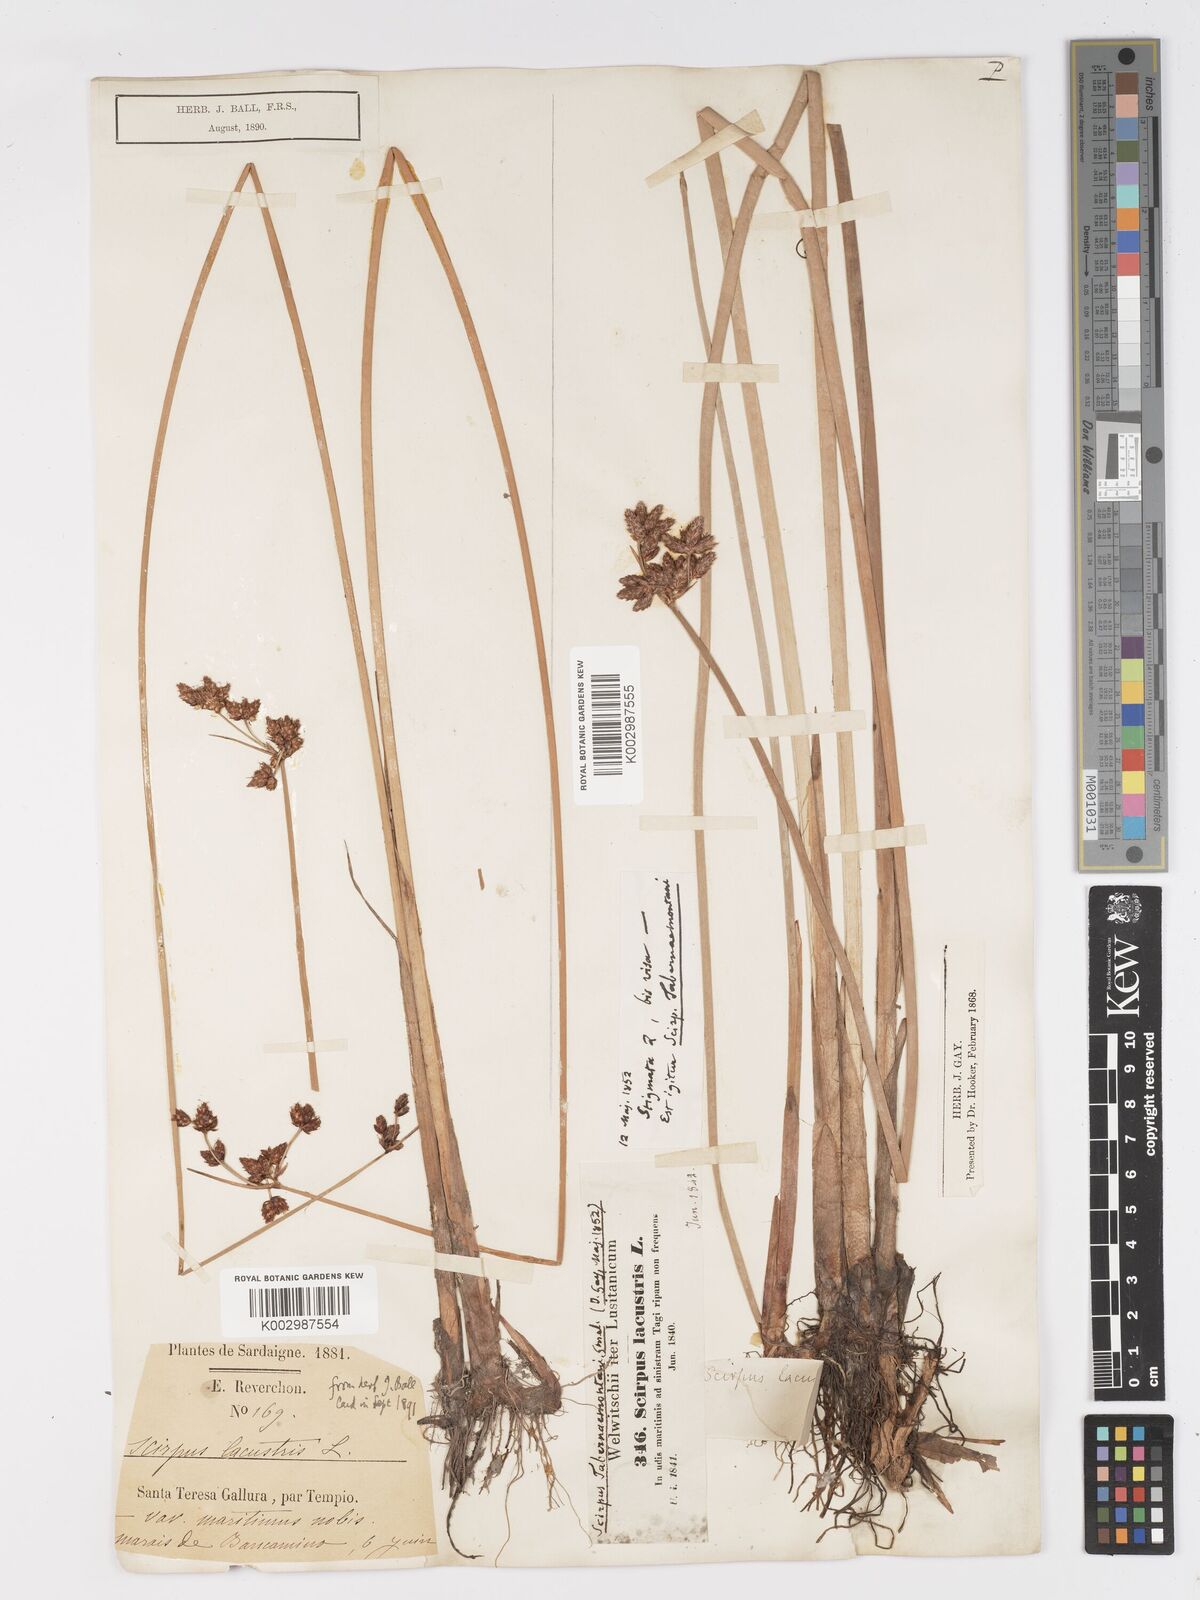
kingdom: Plantae
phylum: Tracheophyta
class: Liliopsida
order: Poales
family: Cyperaceae
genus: Schoenoplectus
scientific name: Schoenoplectus lacustris
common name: Common club-rush
